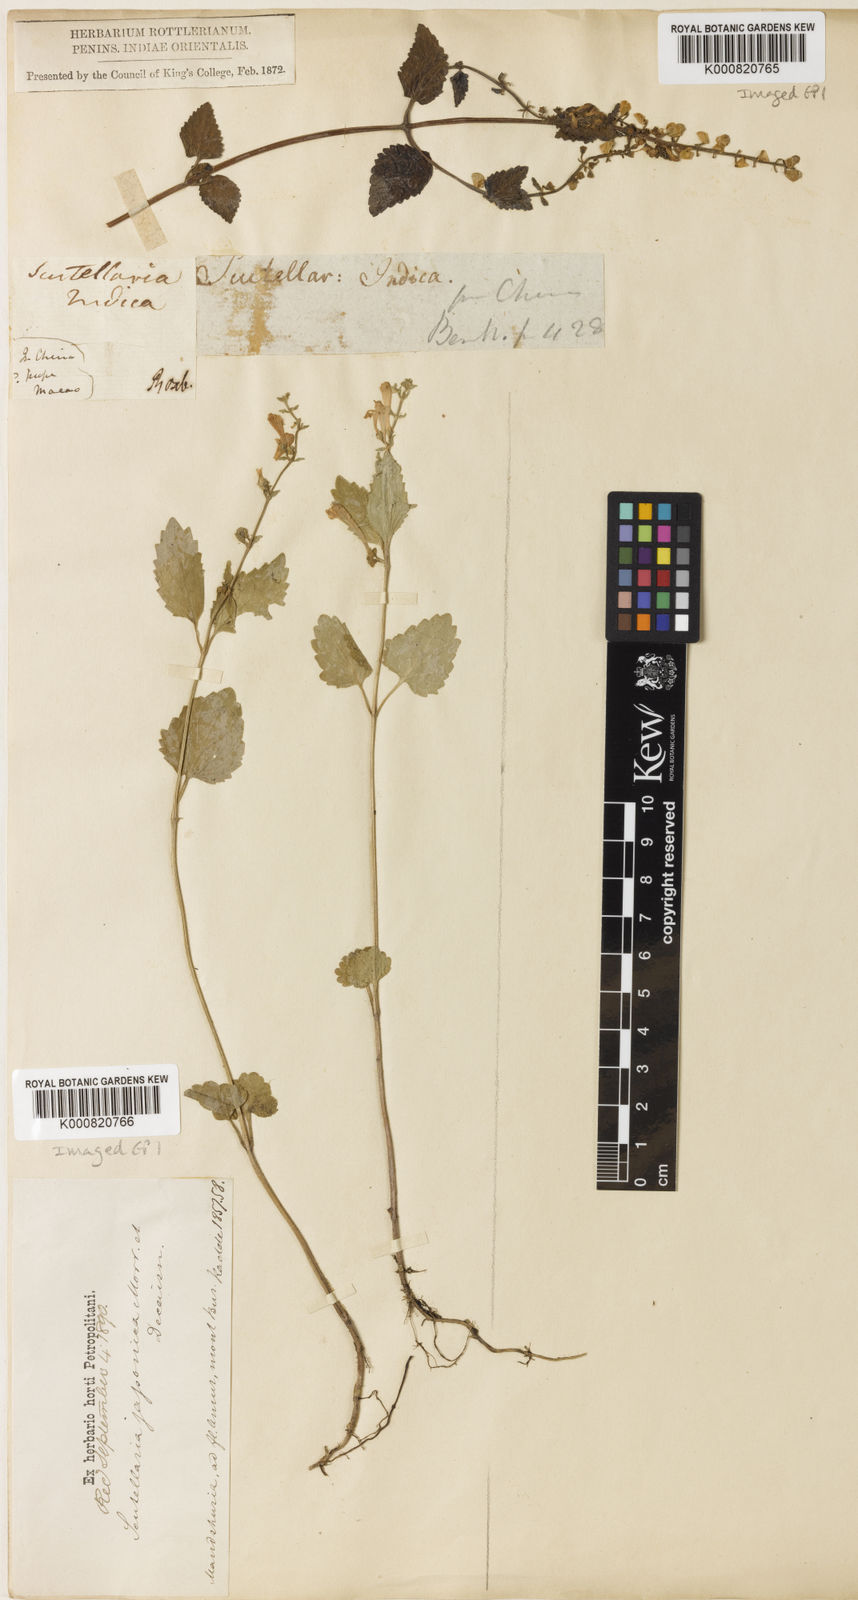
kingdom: Plantae
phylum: Tracheophyta
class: Magnoliopsida
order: Lamiales
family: Lamiaceae
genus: Scutellaria
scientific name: Scutellaria violacea
